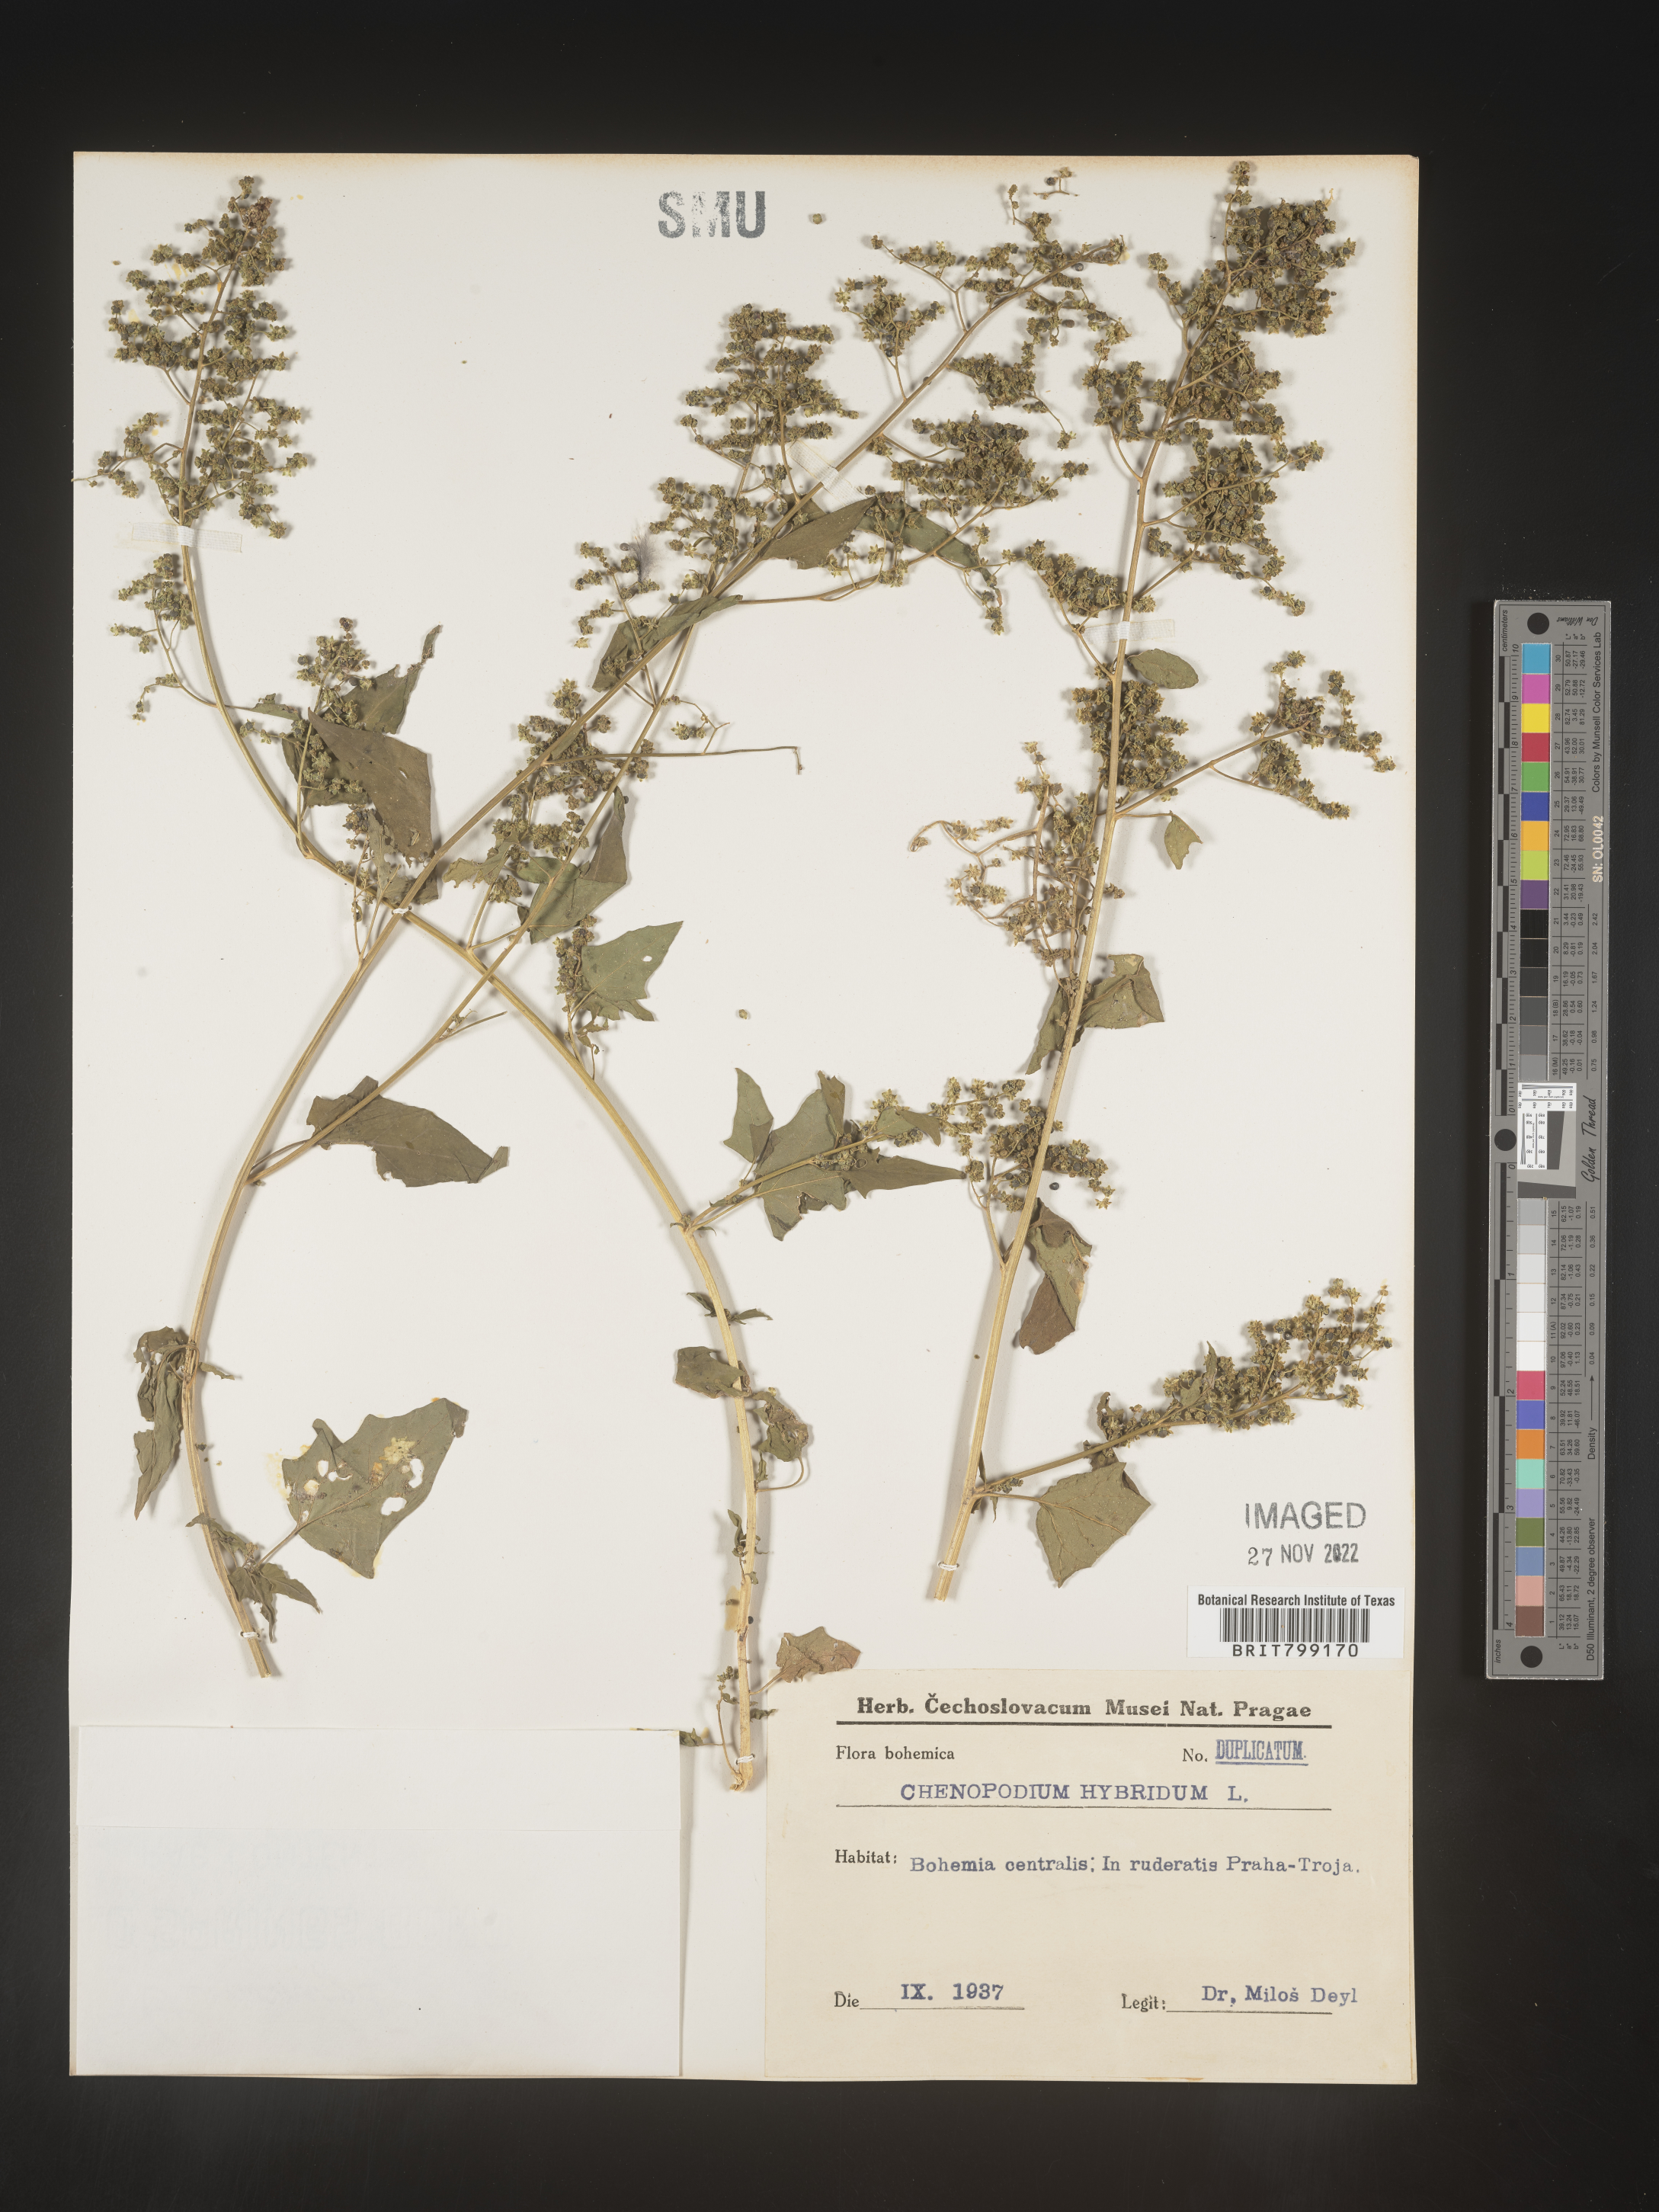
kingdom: Plantae
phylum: Tracheophyta
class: Magnoliopsida
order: Caryophyllales
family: Amaranthaceae
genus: Chenopodium
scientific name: Chenopodium
